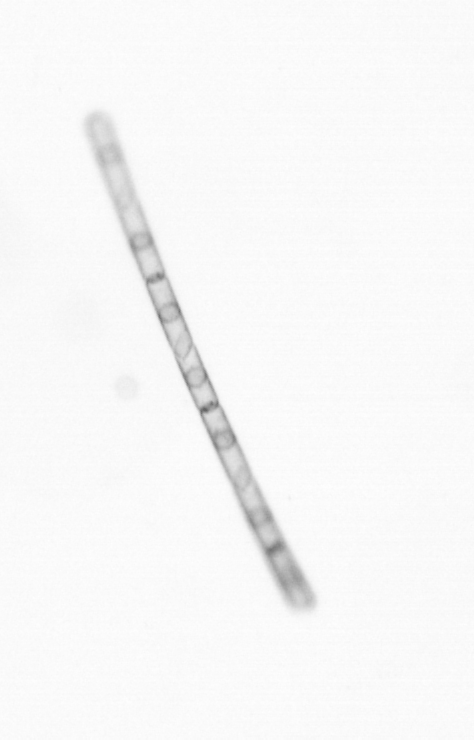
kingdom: Chromista
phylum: Ochrophyta
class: Bacillariophyceae
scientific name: Bacillariophyceae
